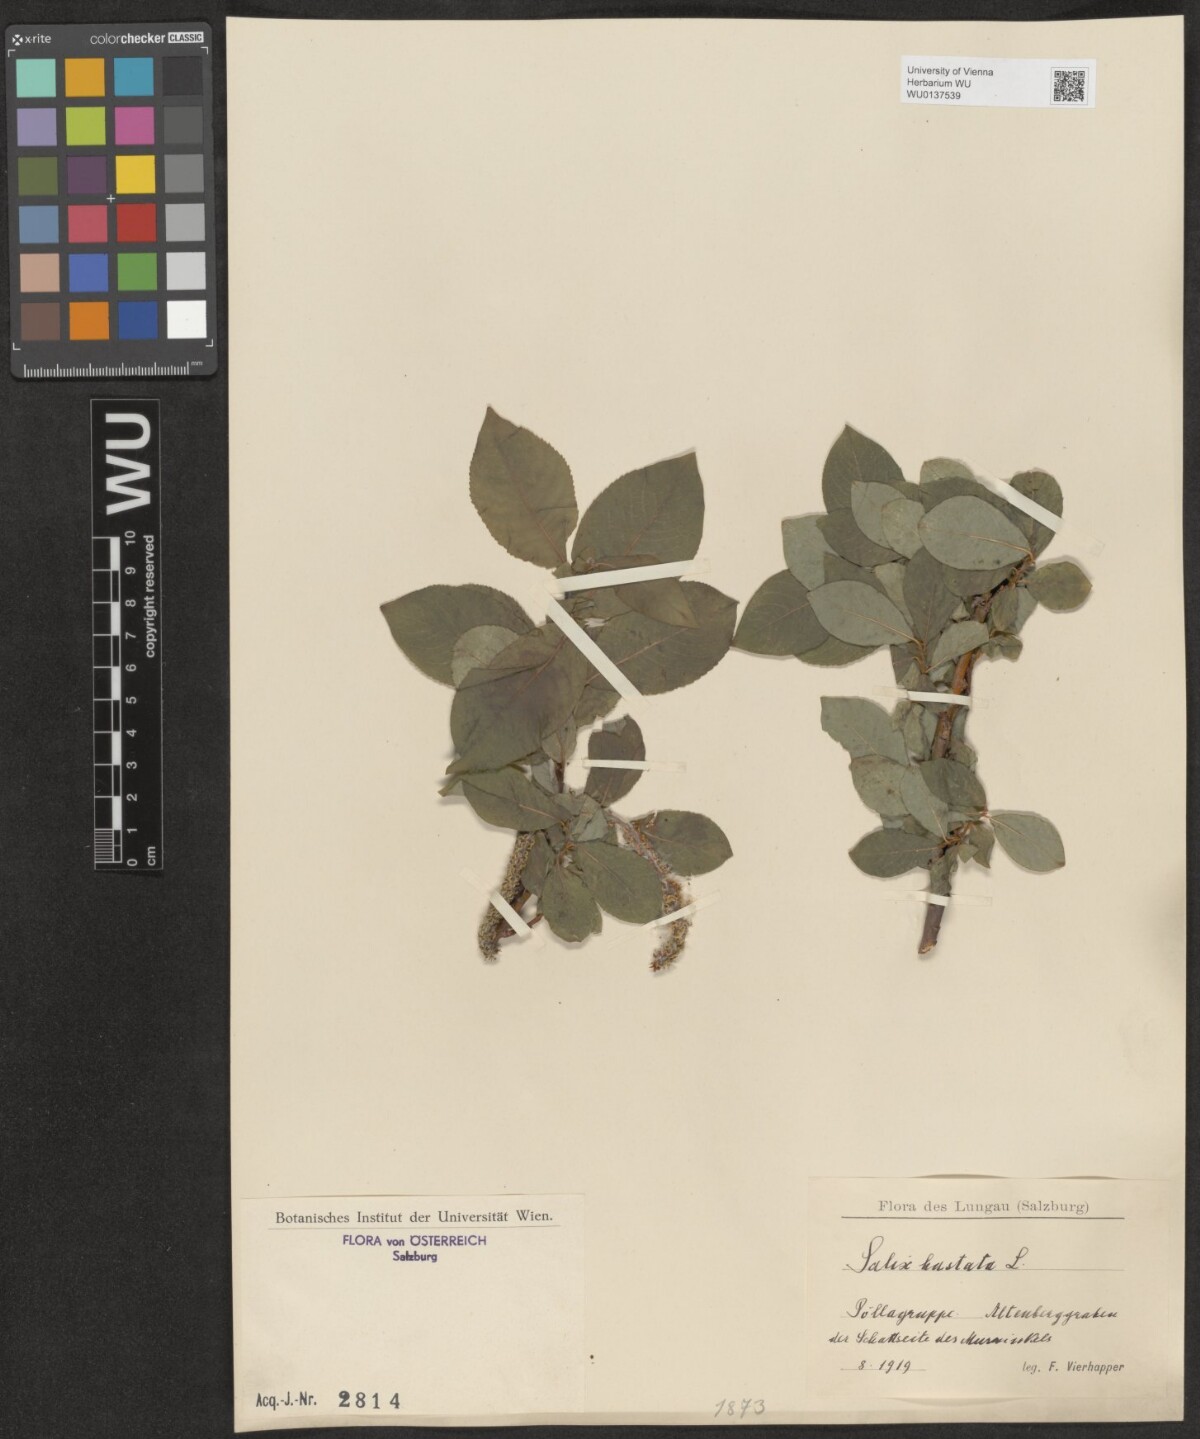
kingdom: Plantae
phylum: Tracheophyta
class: Magnoliopsida
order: Malpighiales
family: Salicaceae
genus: Salix
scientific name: Salix hastata
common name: Halberd willow
